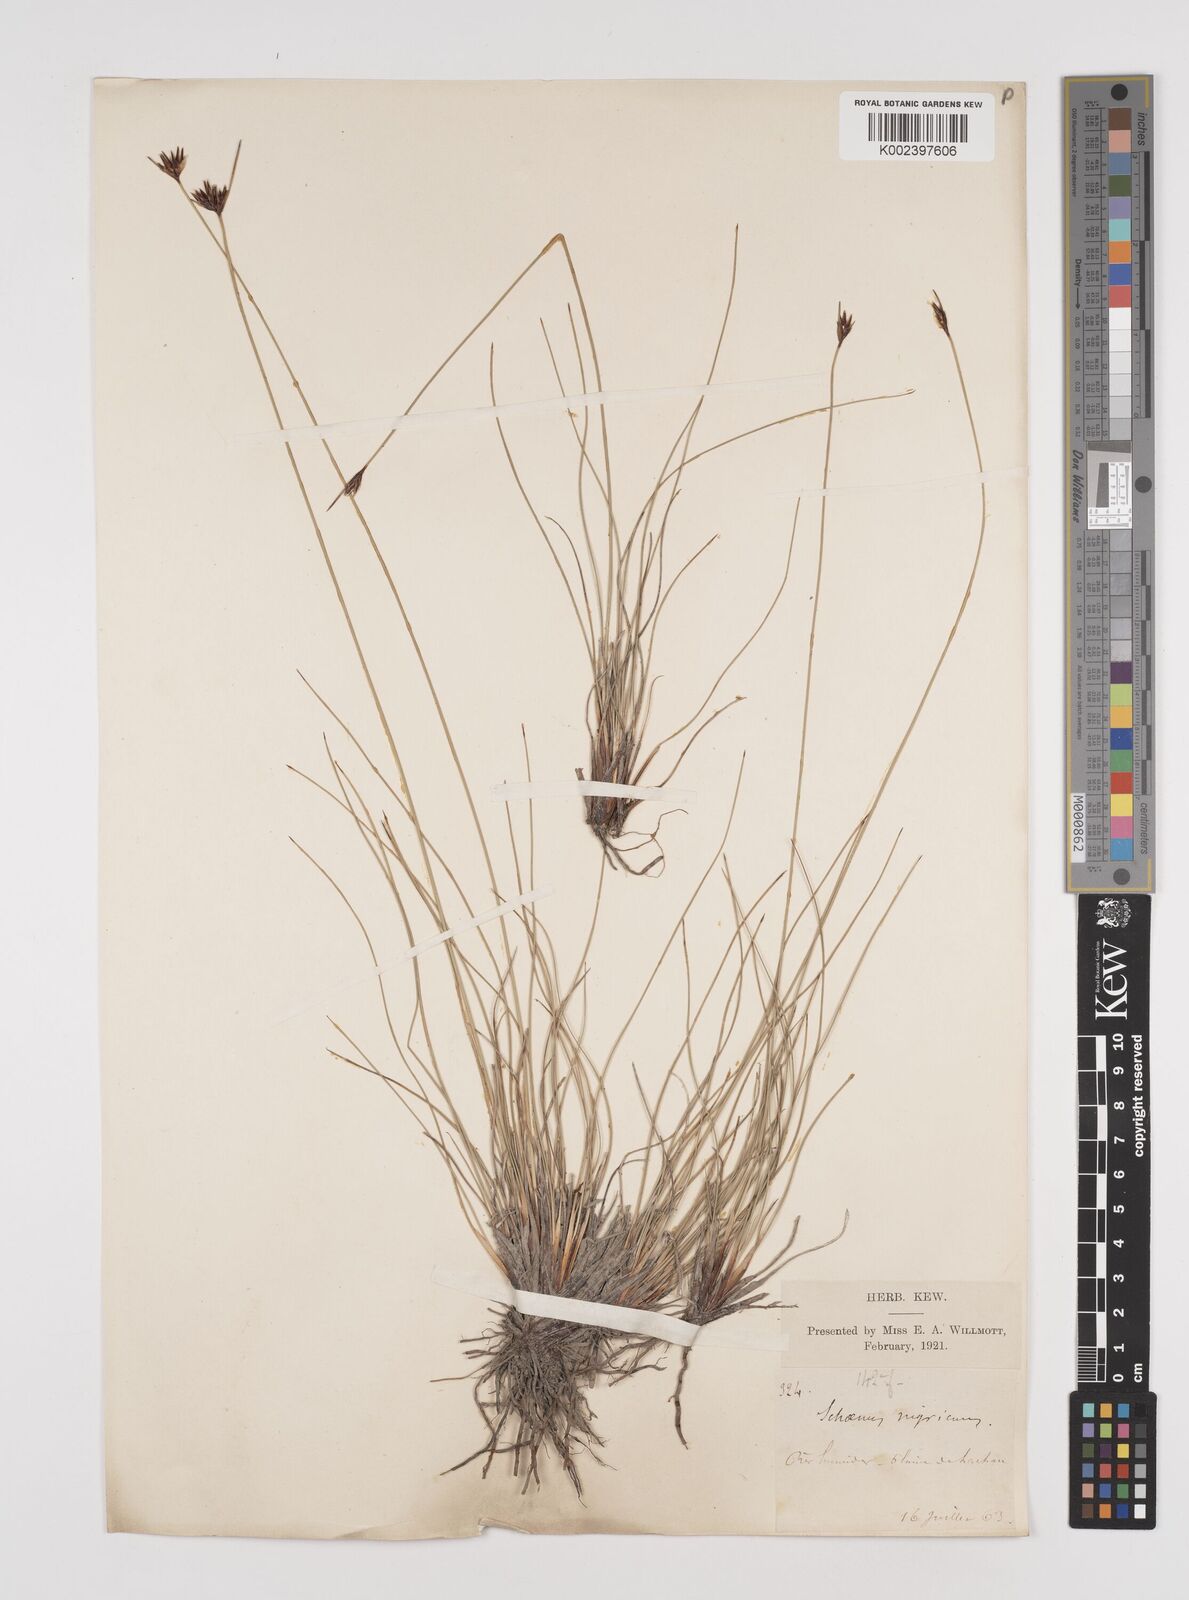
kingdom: Plantae
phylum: Tracheophyta
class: Liliopsida
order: Poales
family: Cyperaceae
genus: Schoenus
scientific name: Schoenus nigricans
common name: Black bog-rush
